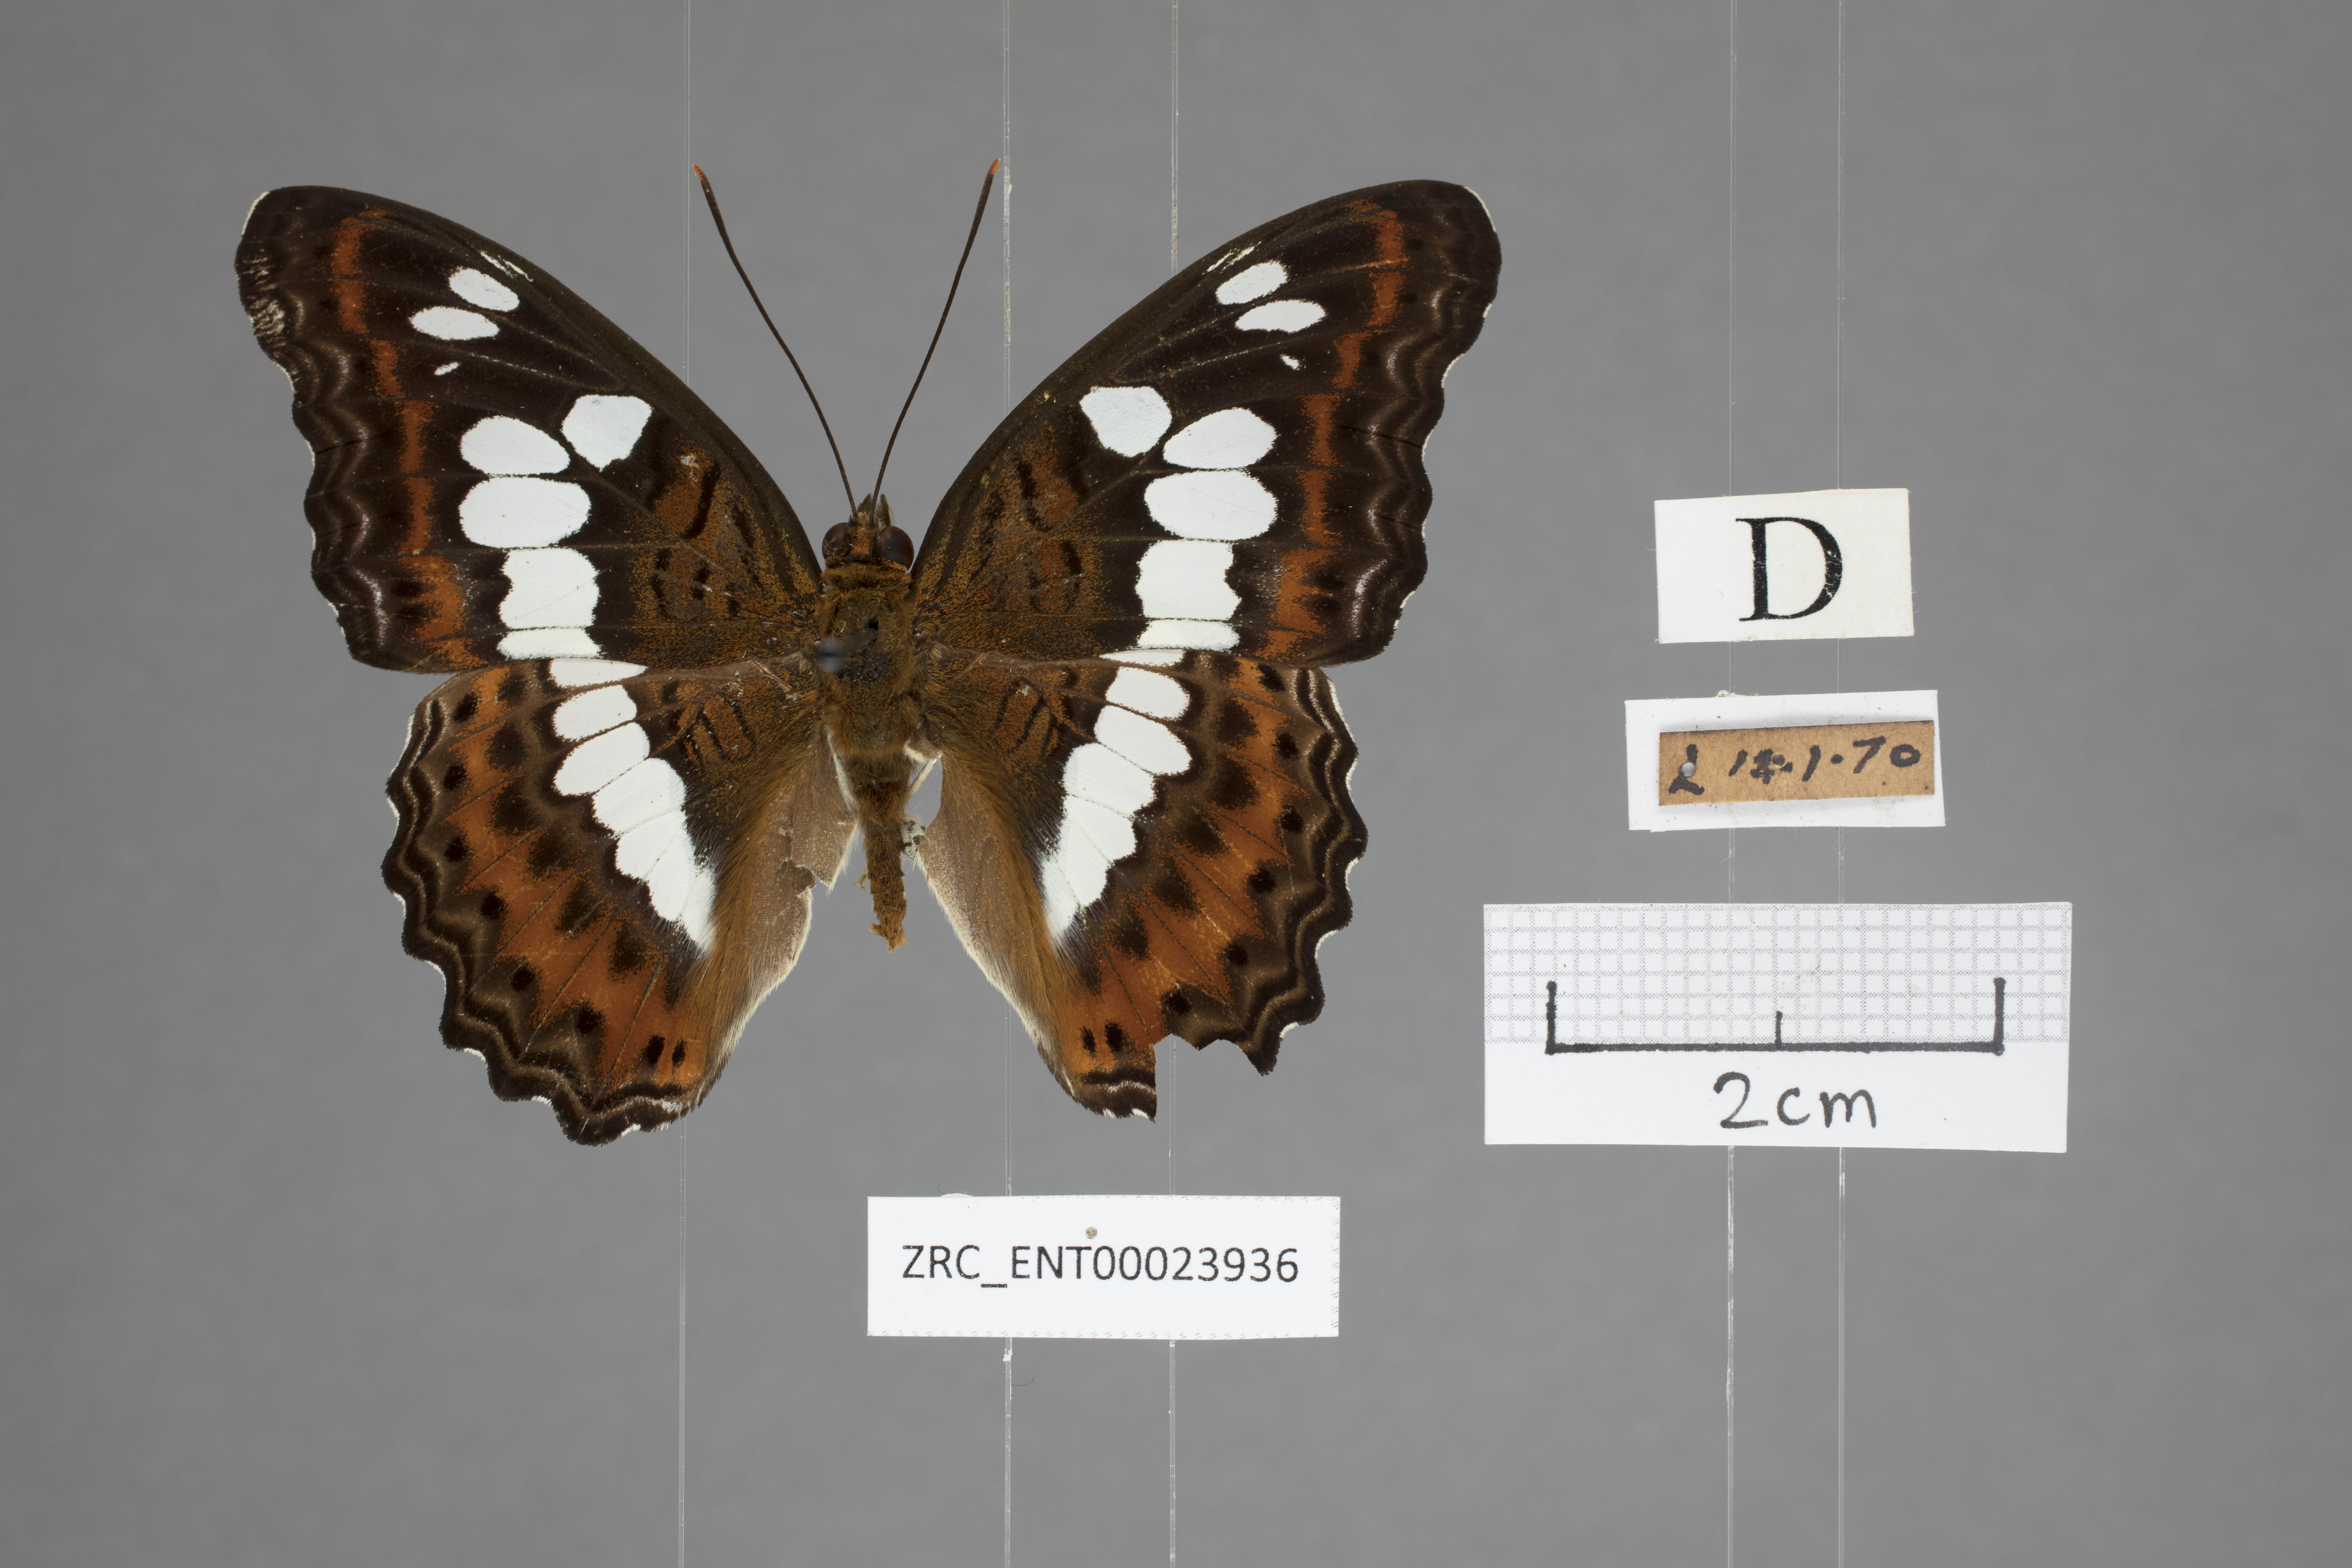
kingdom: Animalia
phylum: Arthropoda
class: Insecta
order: Lepidoptera
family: Nymphalidae
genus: Limenitis
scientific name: Limenitis Moduza procris
